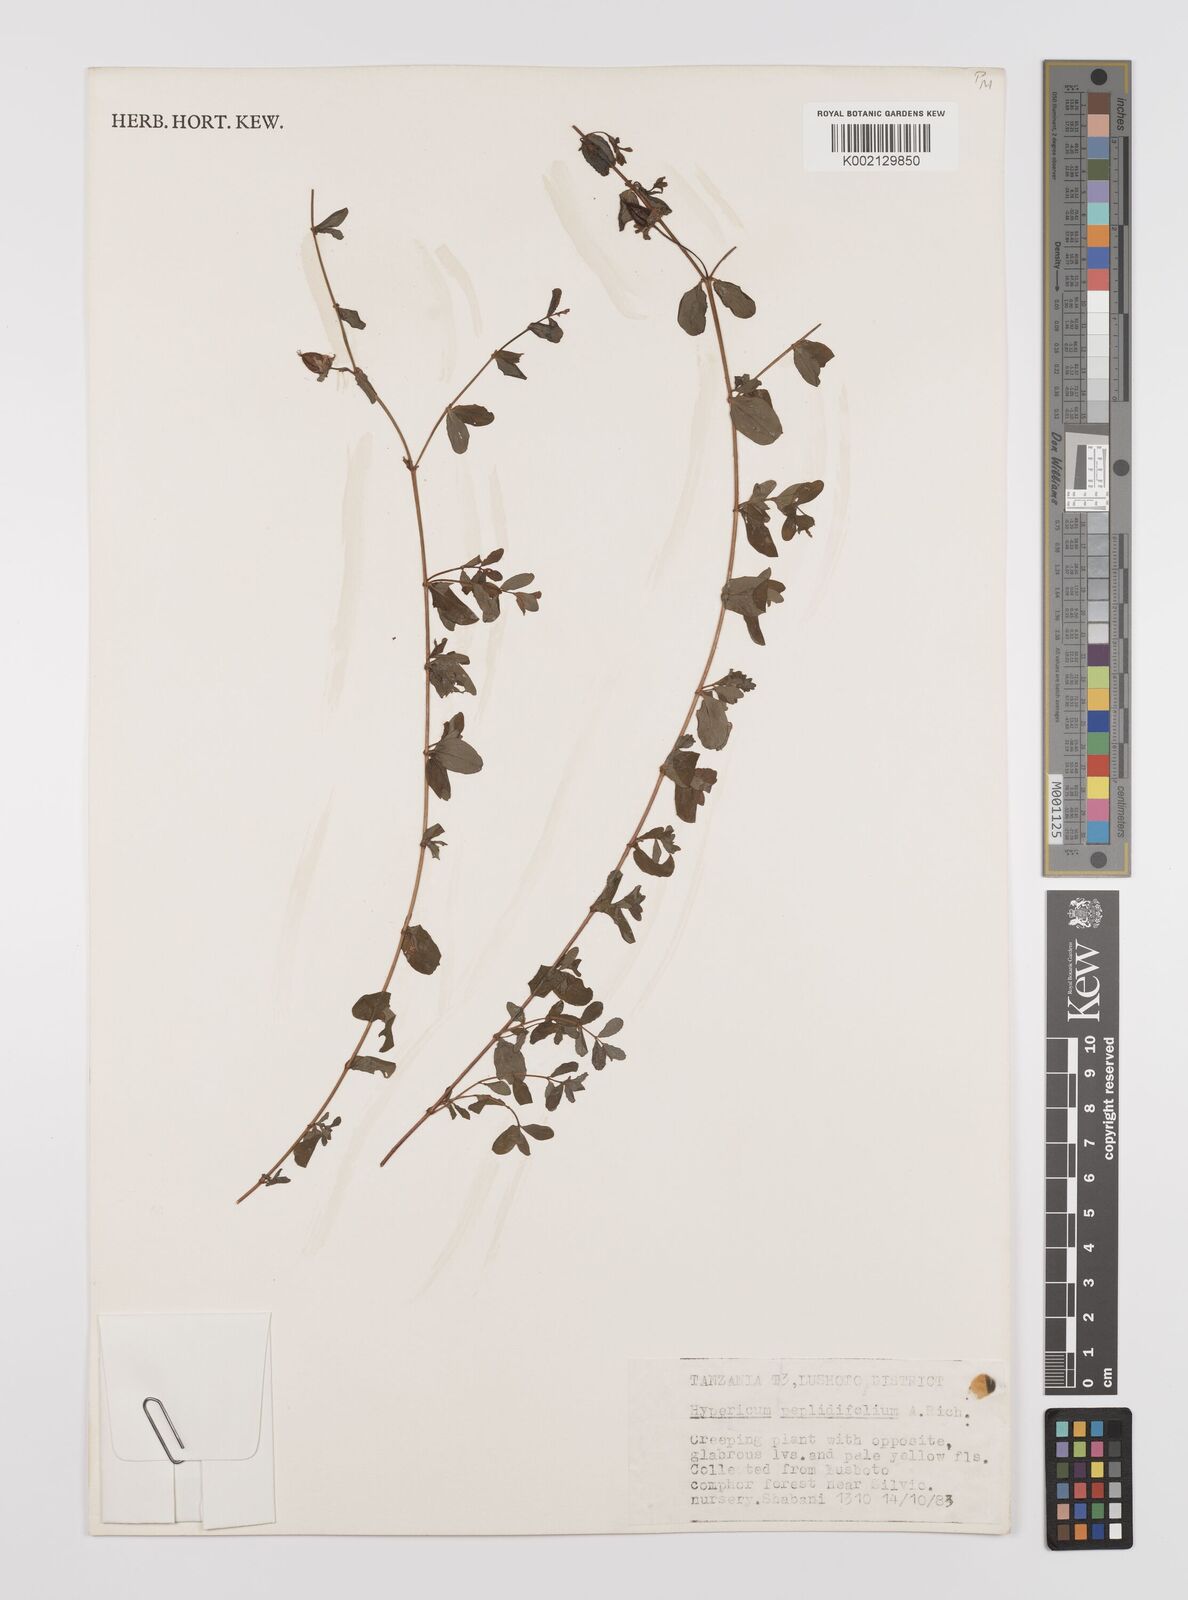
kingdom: Plantae
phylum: Tracheophyta
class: Magnoliopsida
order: Malpighiales
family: Hypericaceae
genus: Hypericum
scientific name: Hypericum peplidifolium
